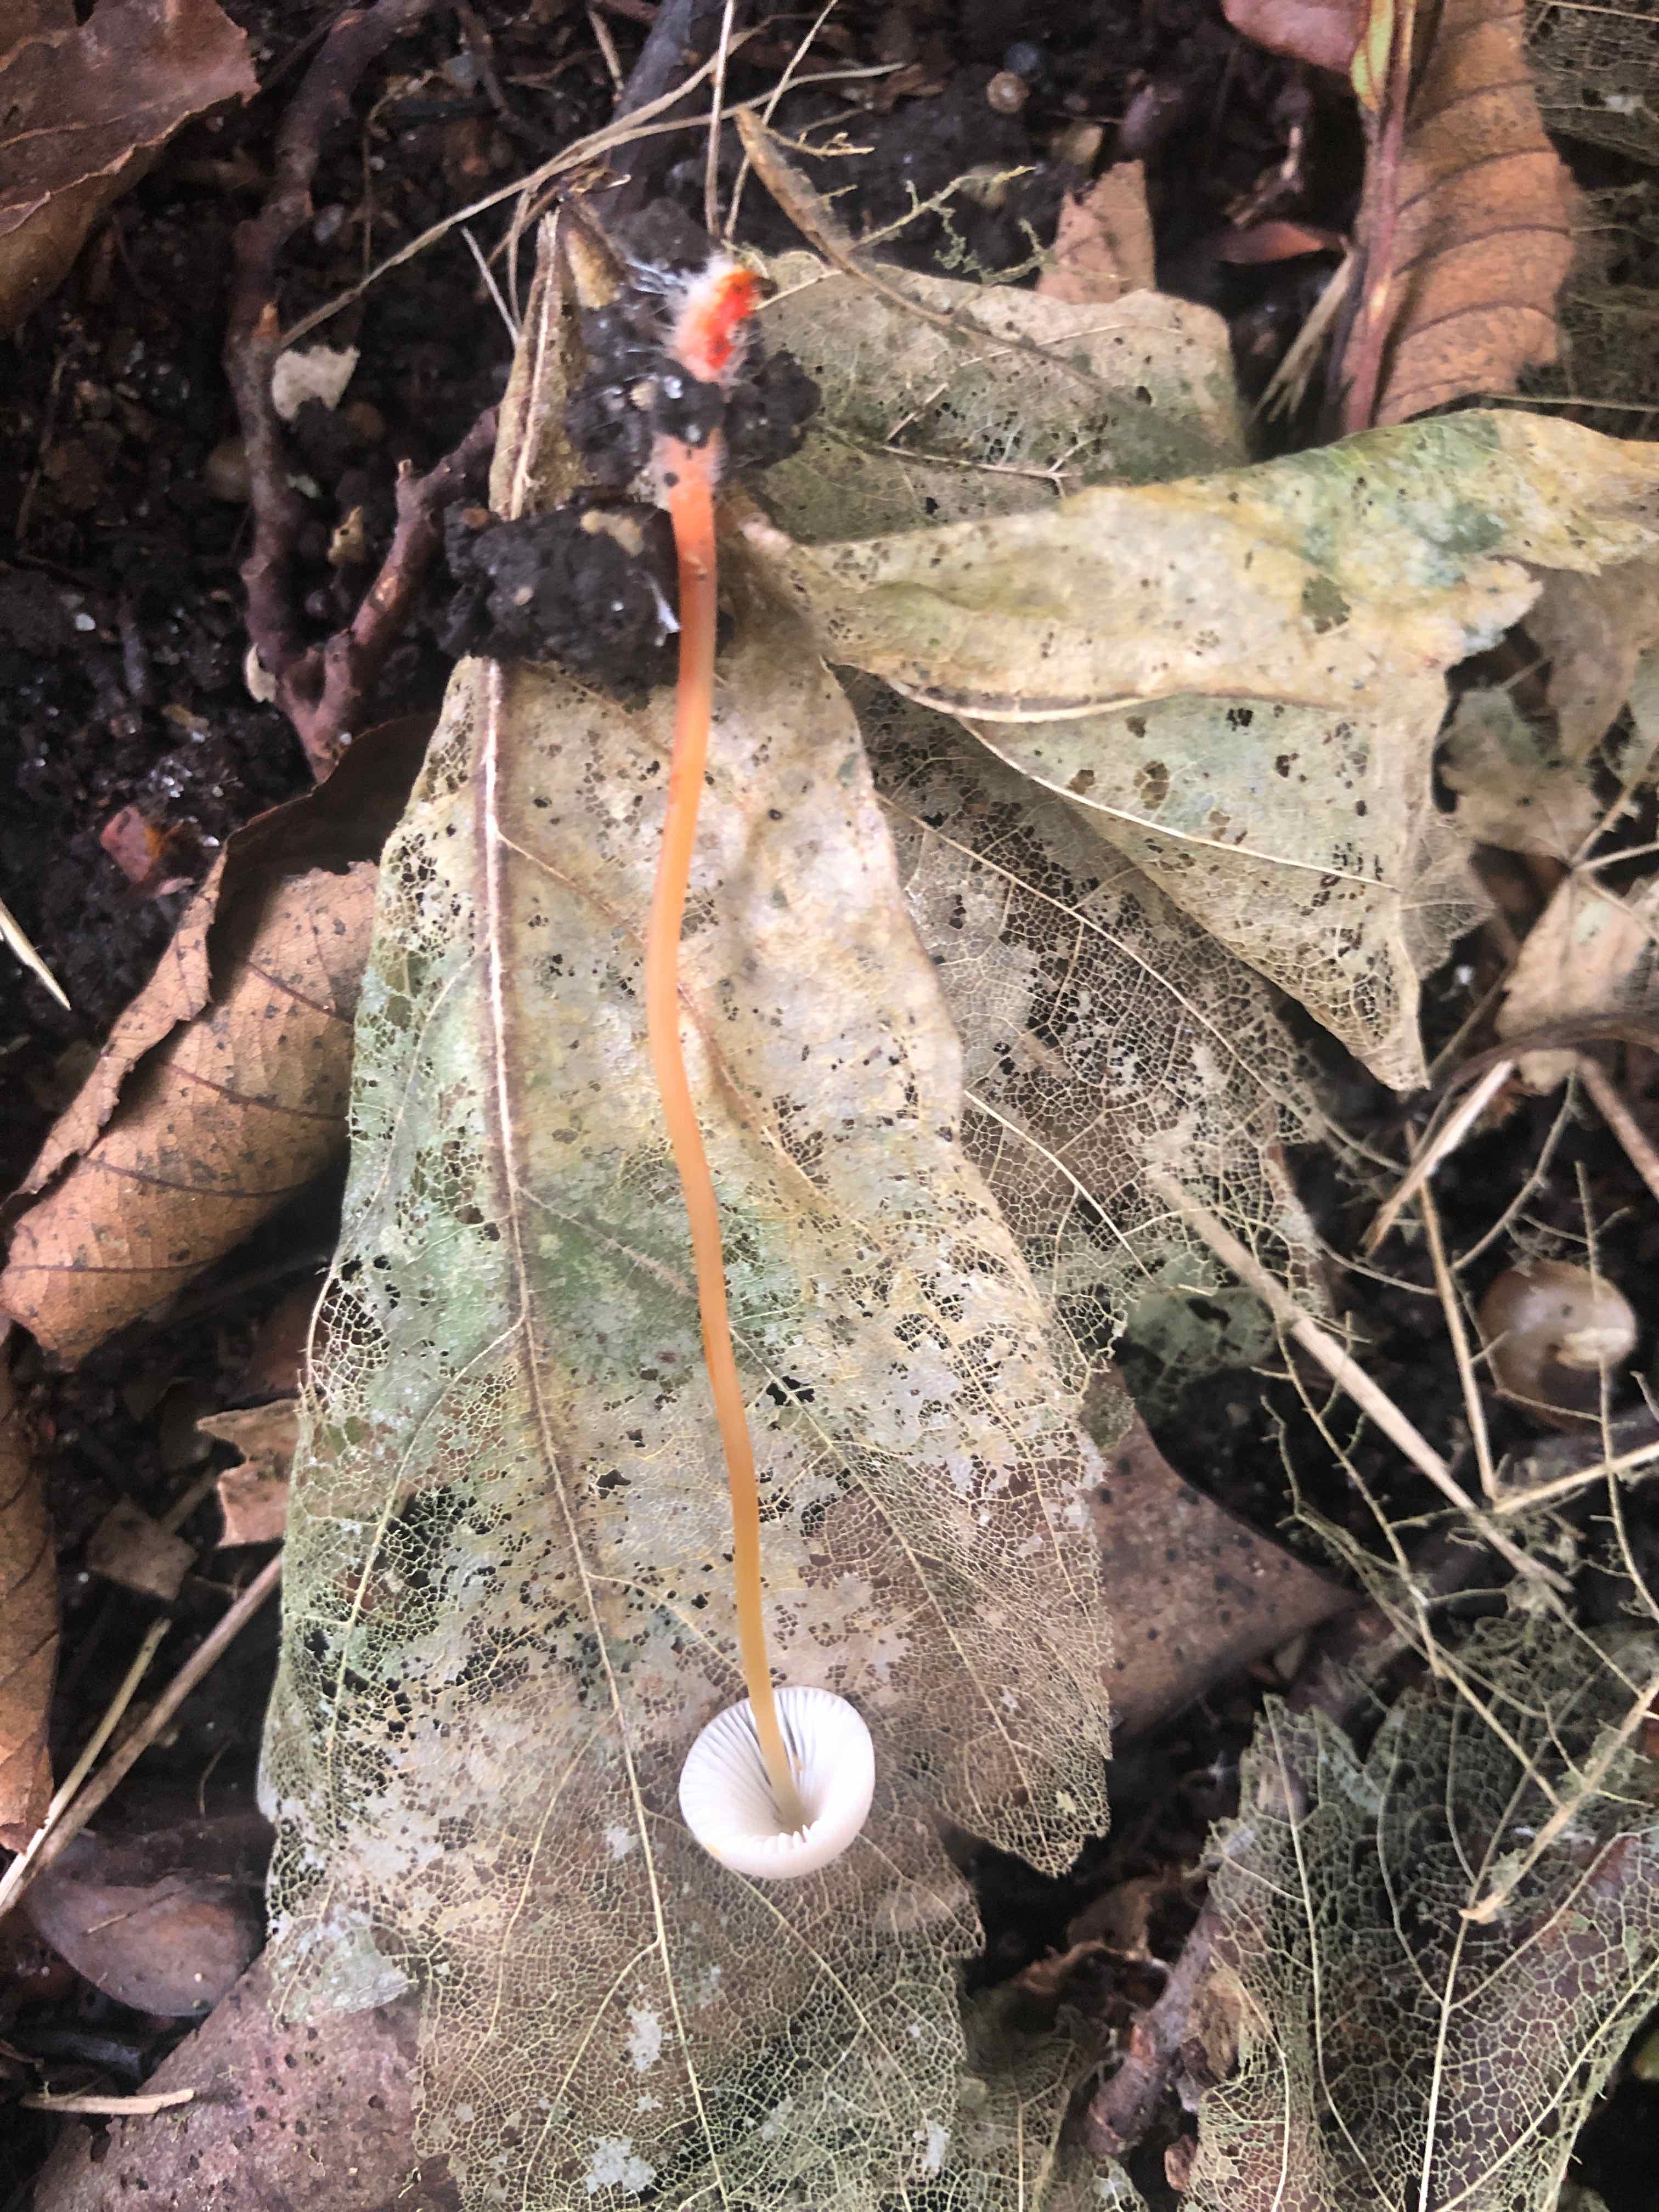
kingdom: Fungi
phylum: Basidiomycota
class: Agaricomycetes
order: Agaricales
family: Mycenaceae
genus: Mycena
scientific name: Mycena crocata
